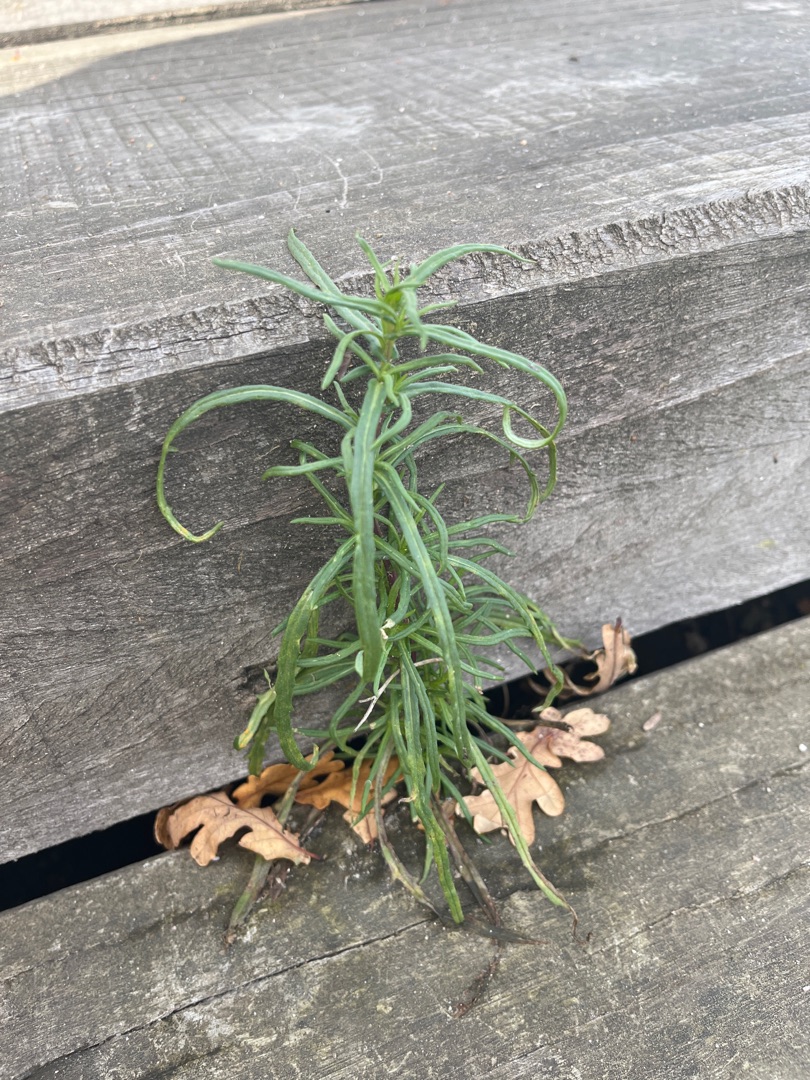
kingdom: Plantae
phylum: Tracheophyta
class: Magnoliopsida
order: Asterales
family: Asteraceae
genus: Senecio
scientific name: Senecio inaequidens
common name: Smalbladet brandbæger
